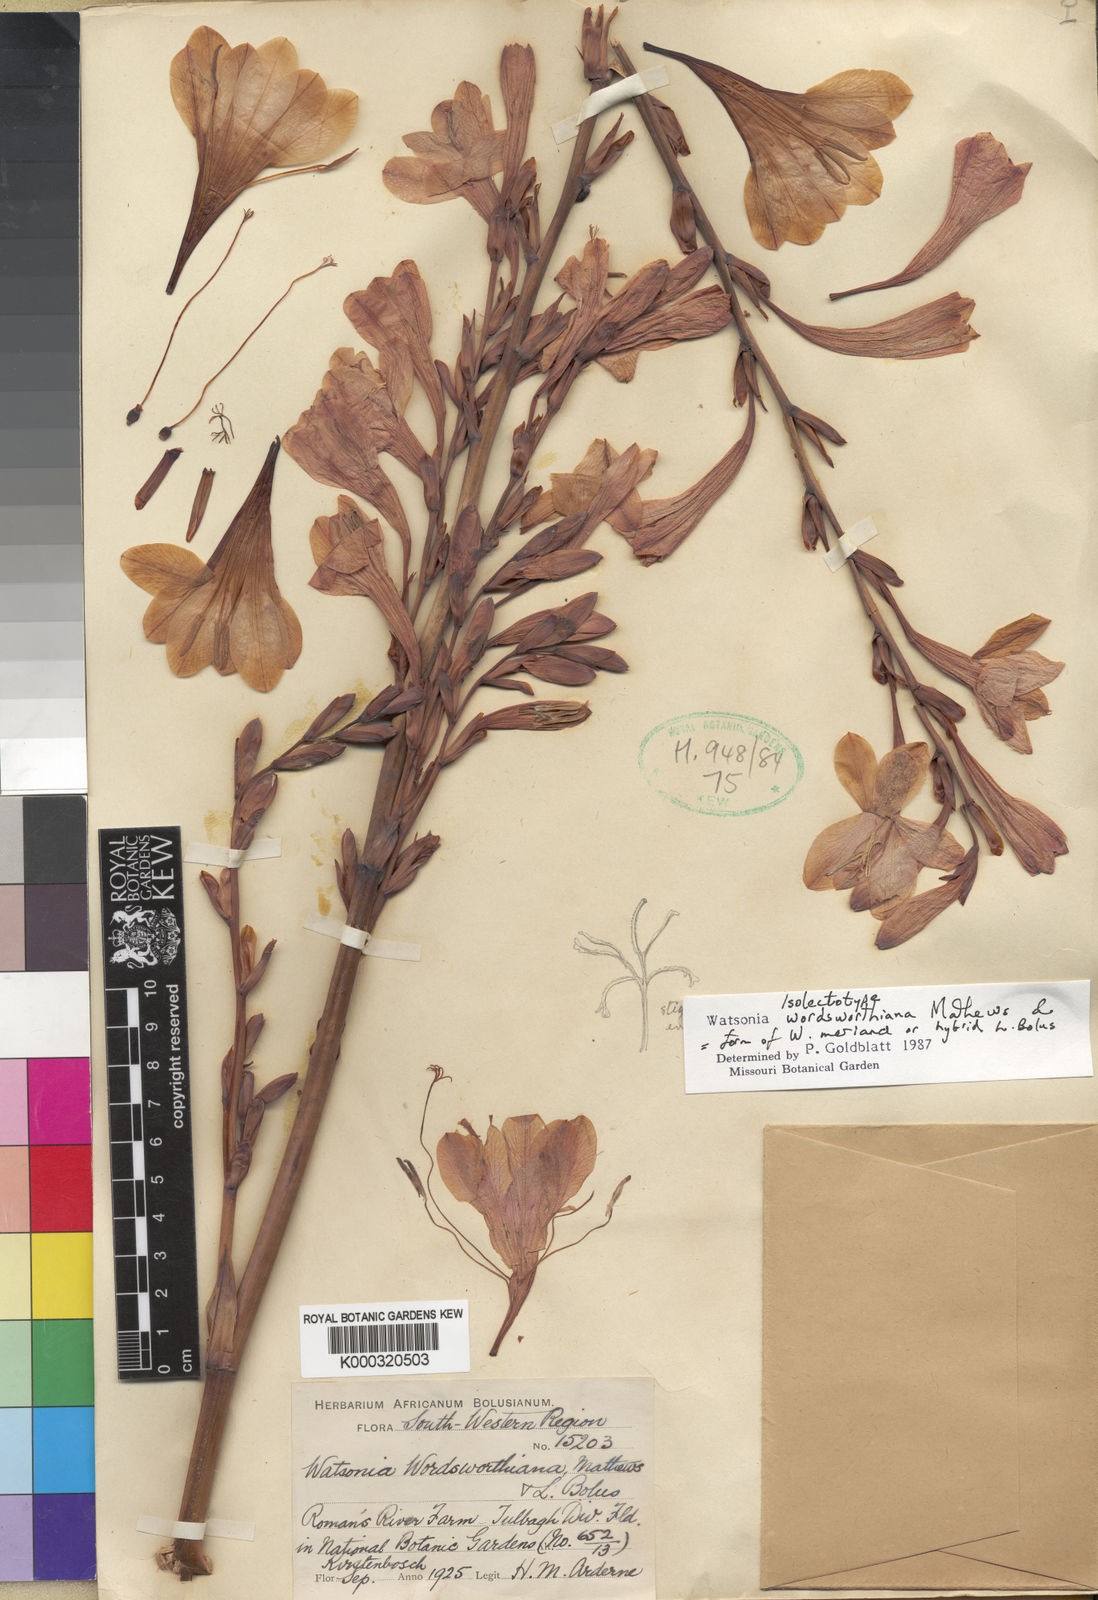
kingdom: Plantae
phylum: Tracheophyta
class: Liliopsida
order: Asparagales
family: Iridaceae
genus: Watsonia
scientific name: Watsonia meriana
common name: Bulbil bugle-lily
